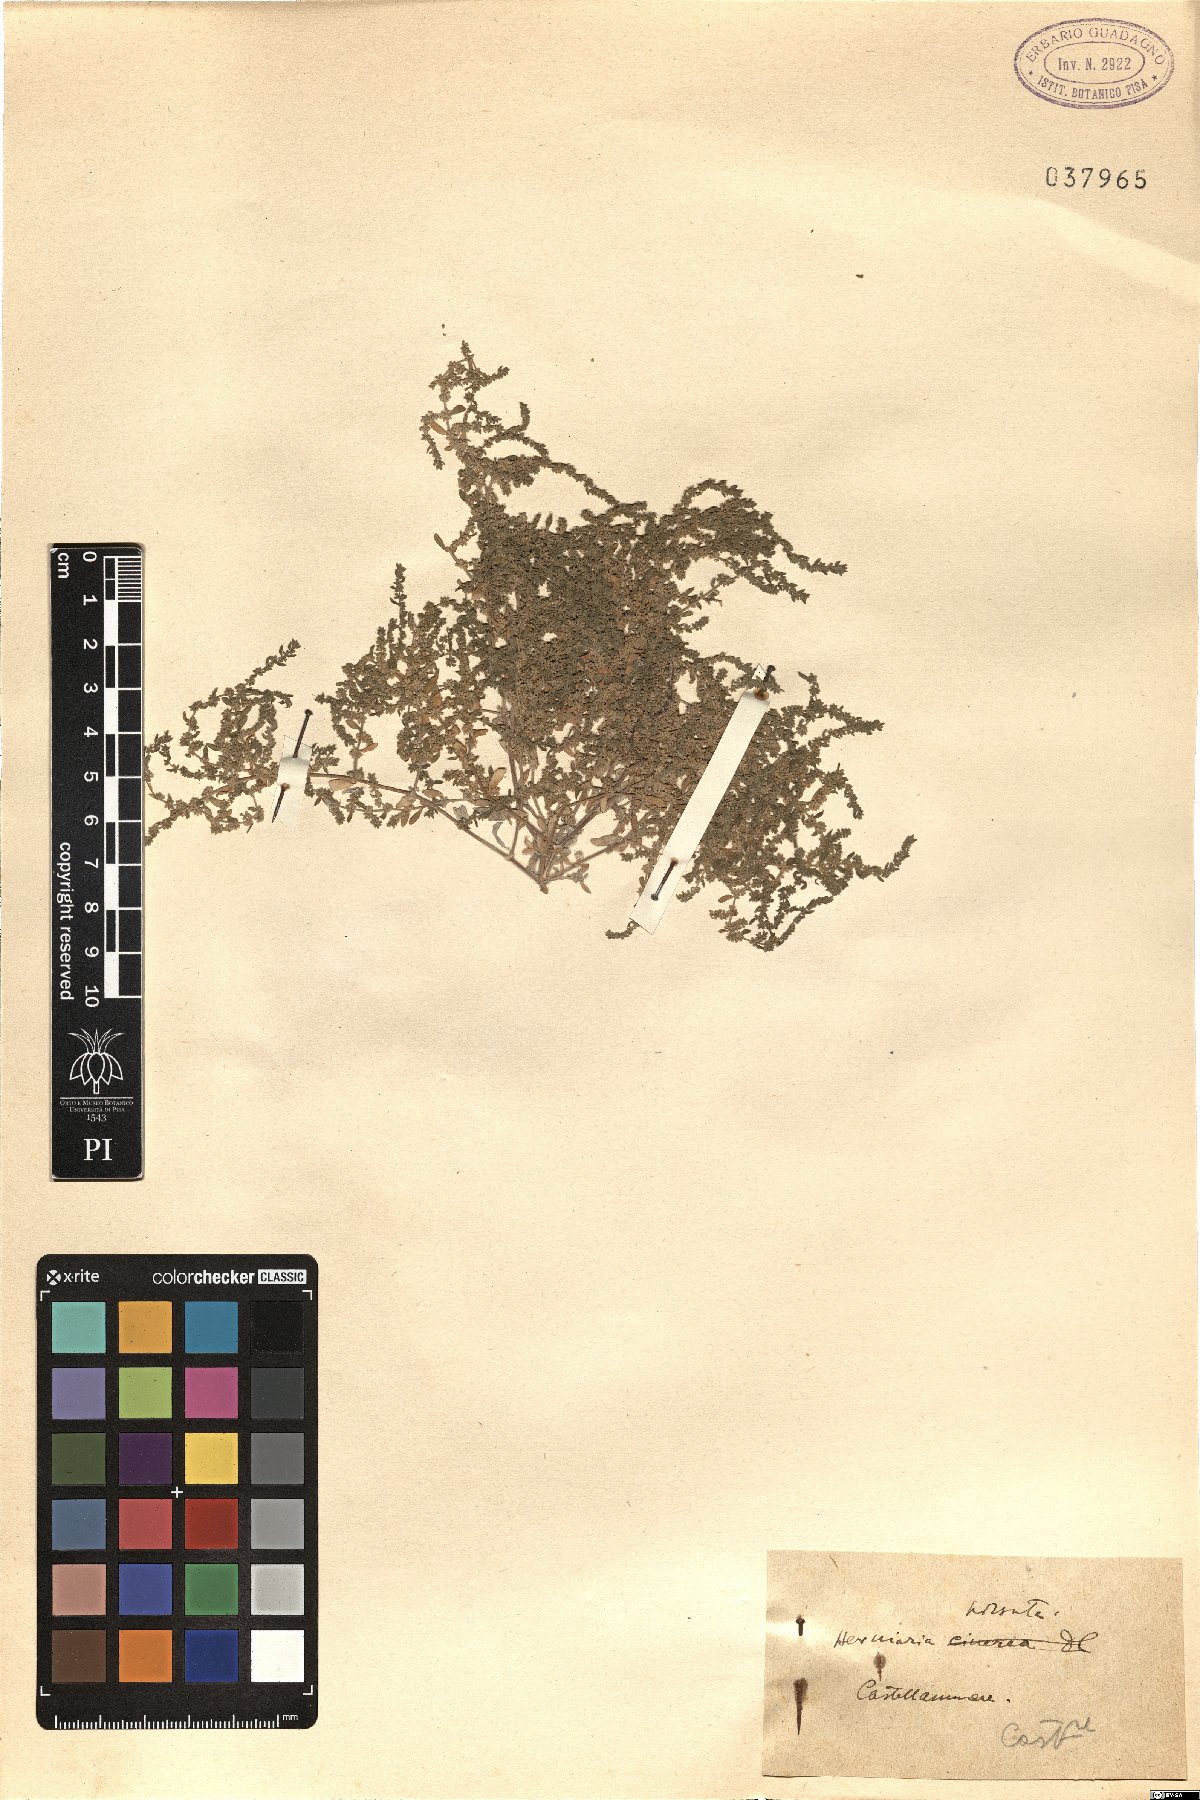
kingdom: Plantae
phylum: Tracheophyta
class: Magnoliopsida
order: Caryophyllales
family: Caryophyllaceae
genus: Herniaria
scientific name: Herniaria hirsuta
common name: Hairy rupturewort
